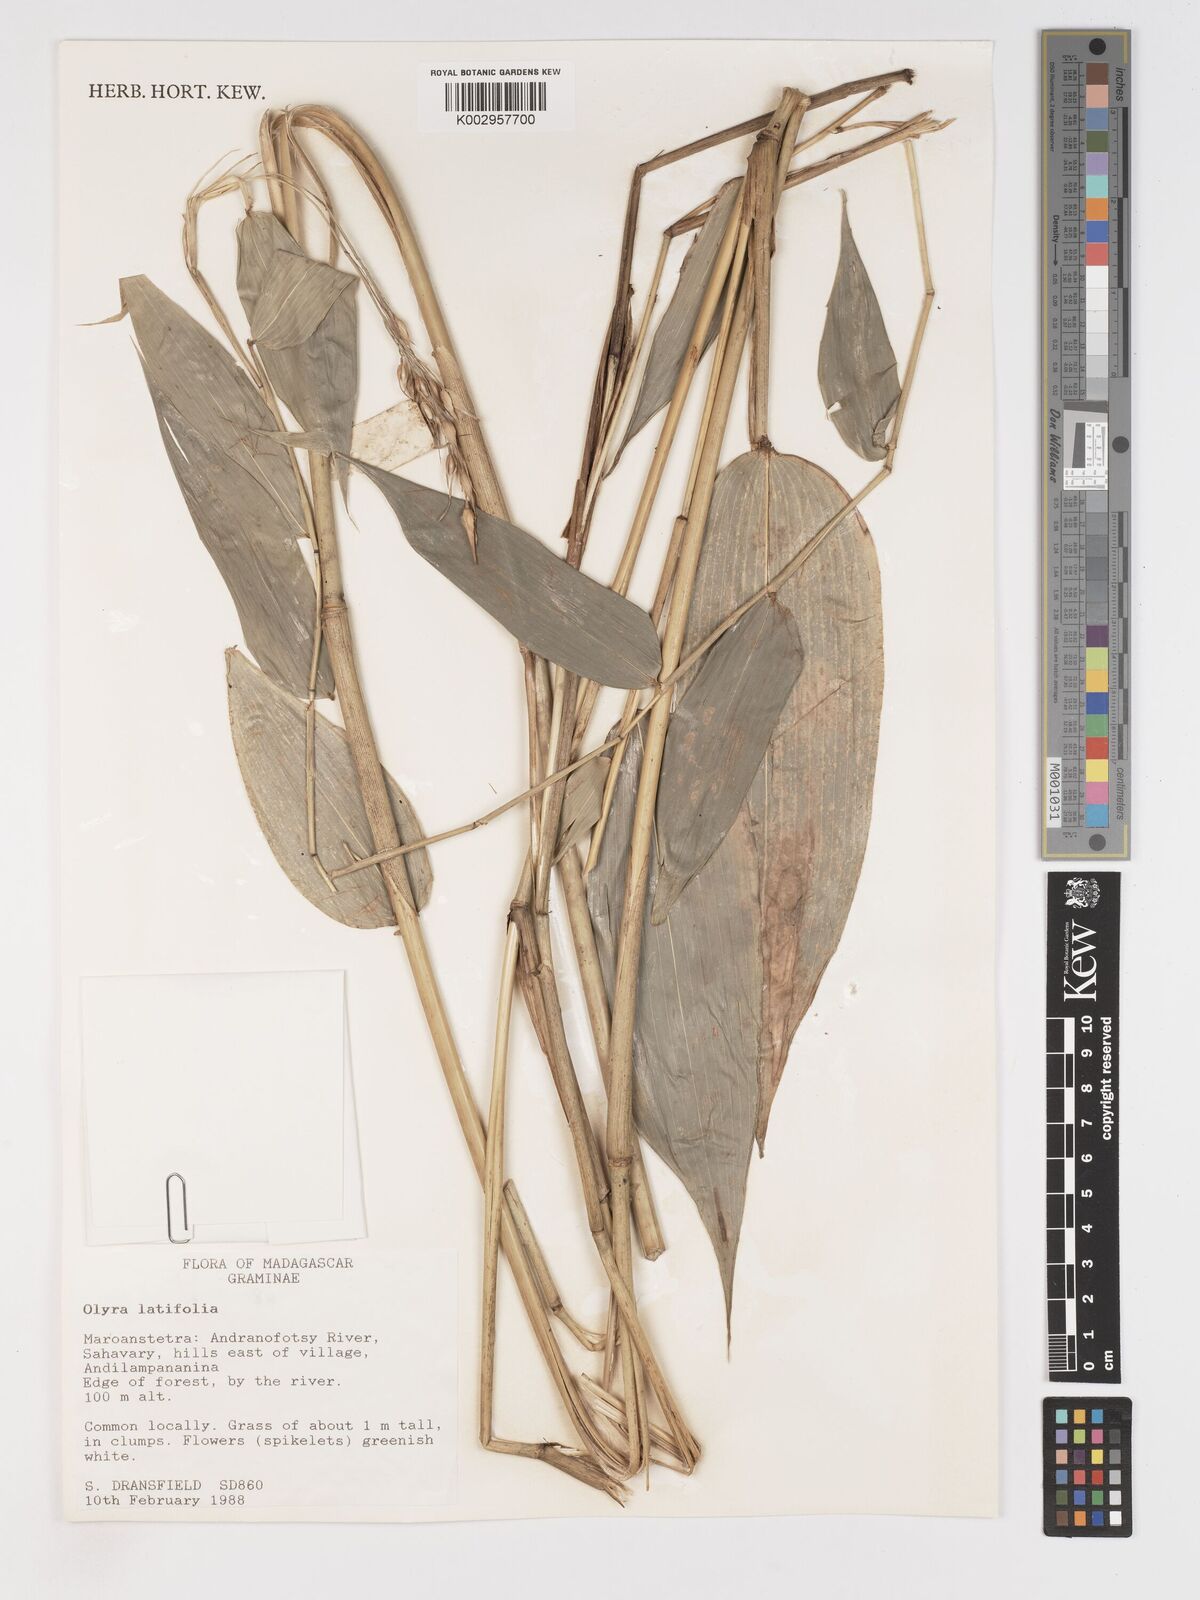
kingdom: Plantae
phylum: Tracheophyta
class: Liliopsida
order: Poales
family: Poaceae
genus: Olyra
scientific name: Olyra latifolia
